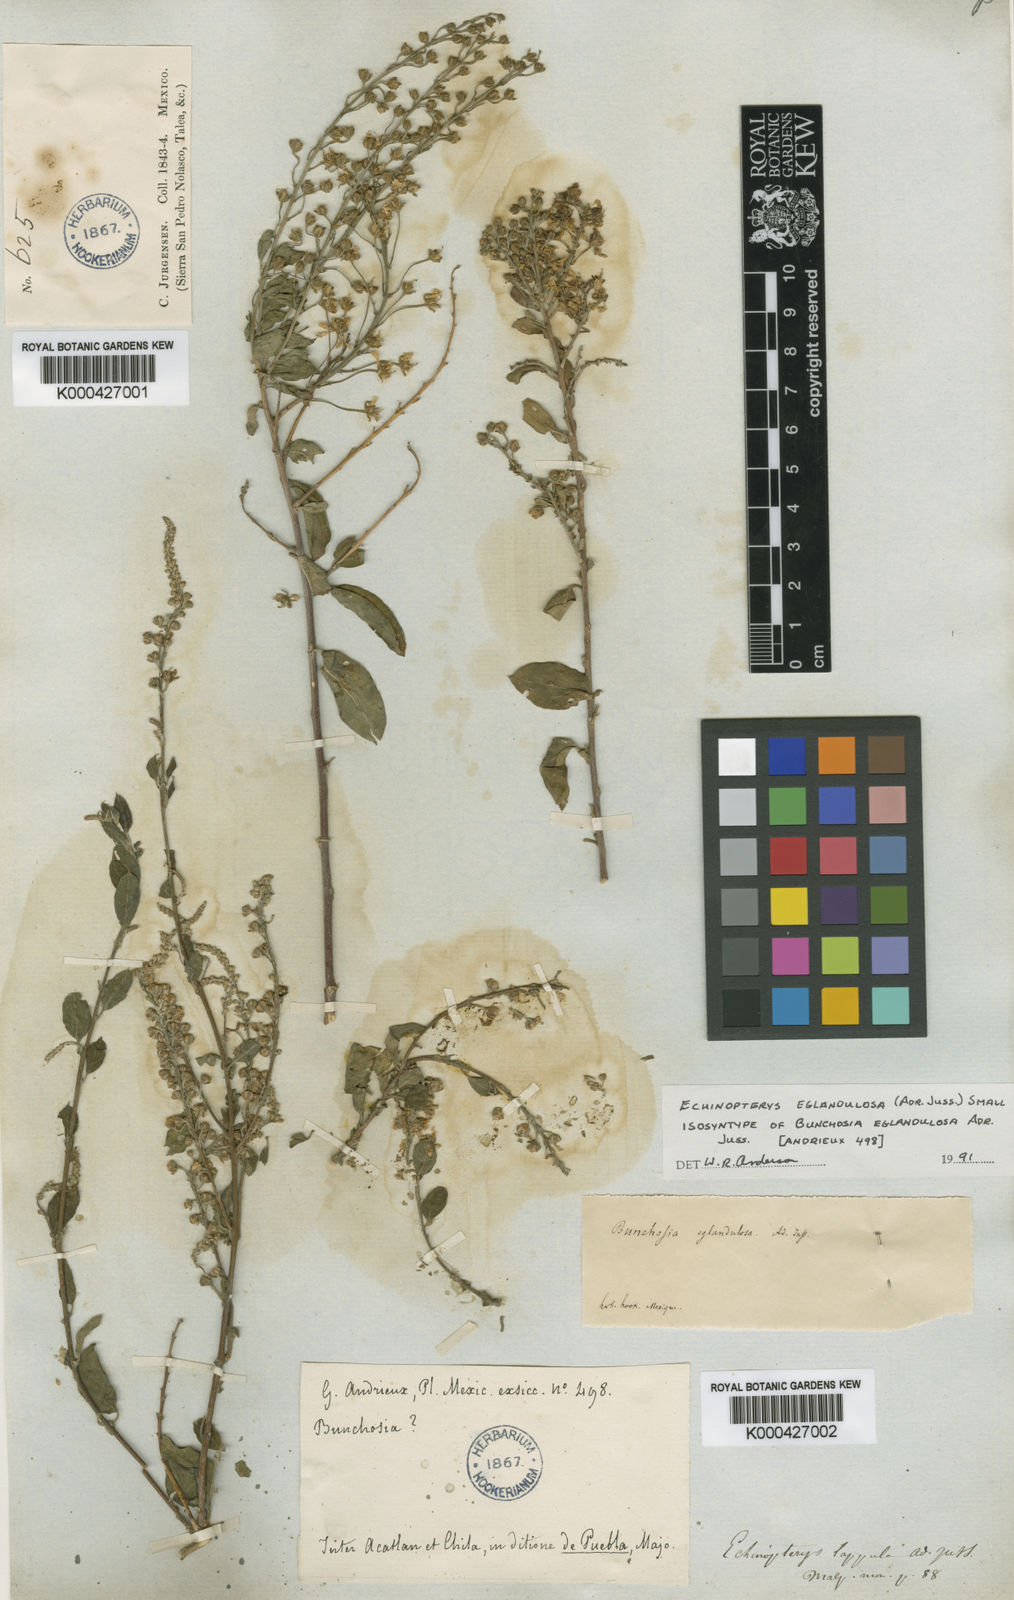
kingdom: Plantae
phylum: Tracheophyta
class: Magnoliopsida
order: Malpighiales
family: Malpighiaceae
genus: Echinopterys
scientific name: Echinopterys eglandulosa
